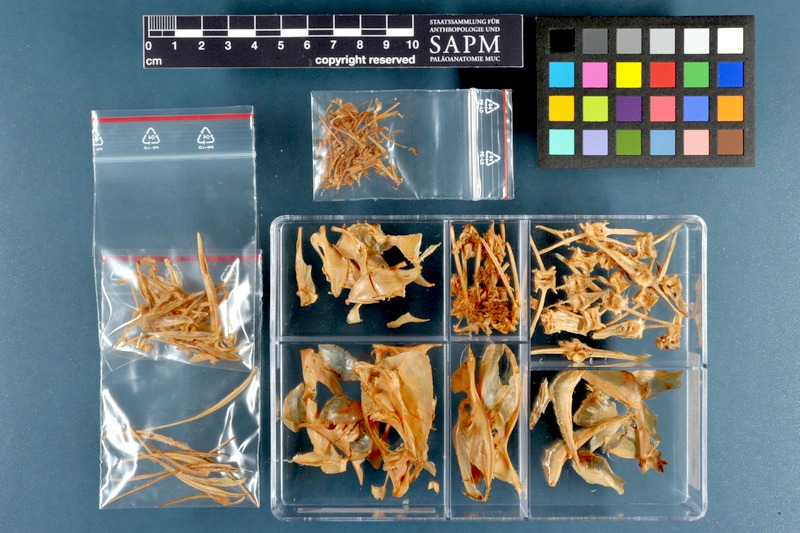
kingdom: Animalia
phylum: Chordata
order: Perciformes
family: Carangidae
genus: Carangoides
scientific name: Carangoides malabaricus
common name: Malabar trevally
